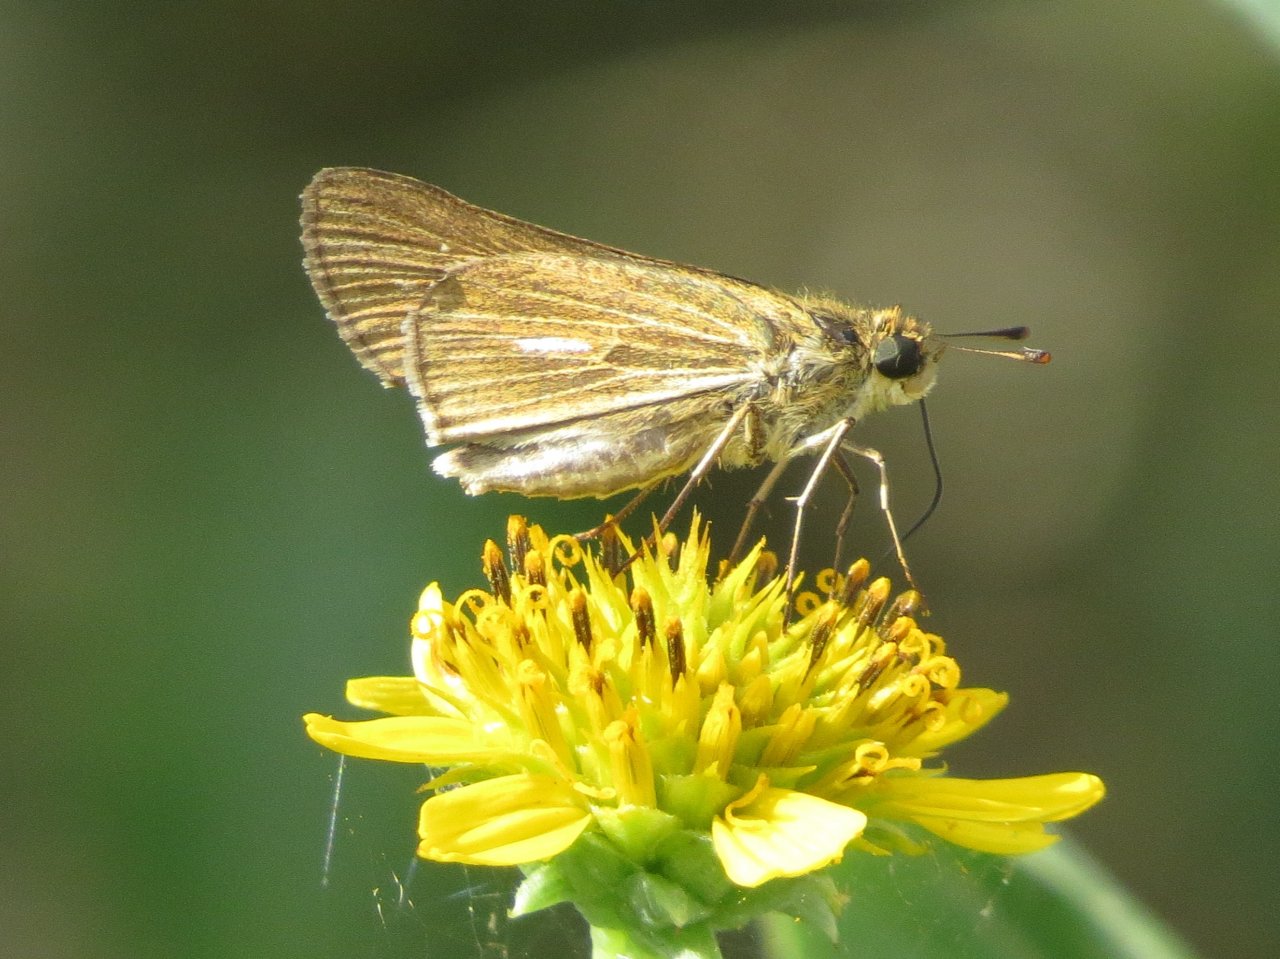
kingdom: Animalia
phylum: Arthropoda
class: Insecta
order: Lepidoptera
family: Hesperiidae
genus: Panoquina
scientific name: Panoquina panoquin
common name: Salt Marsh Skipper
